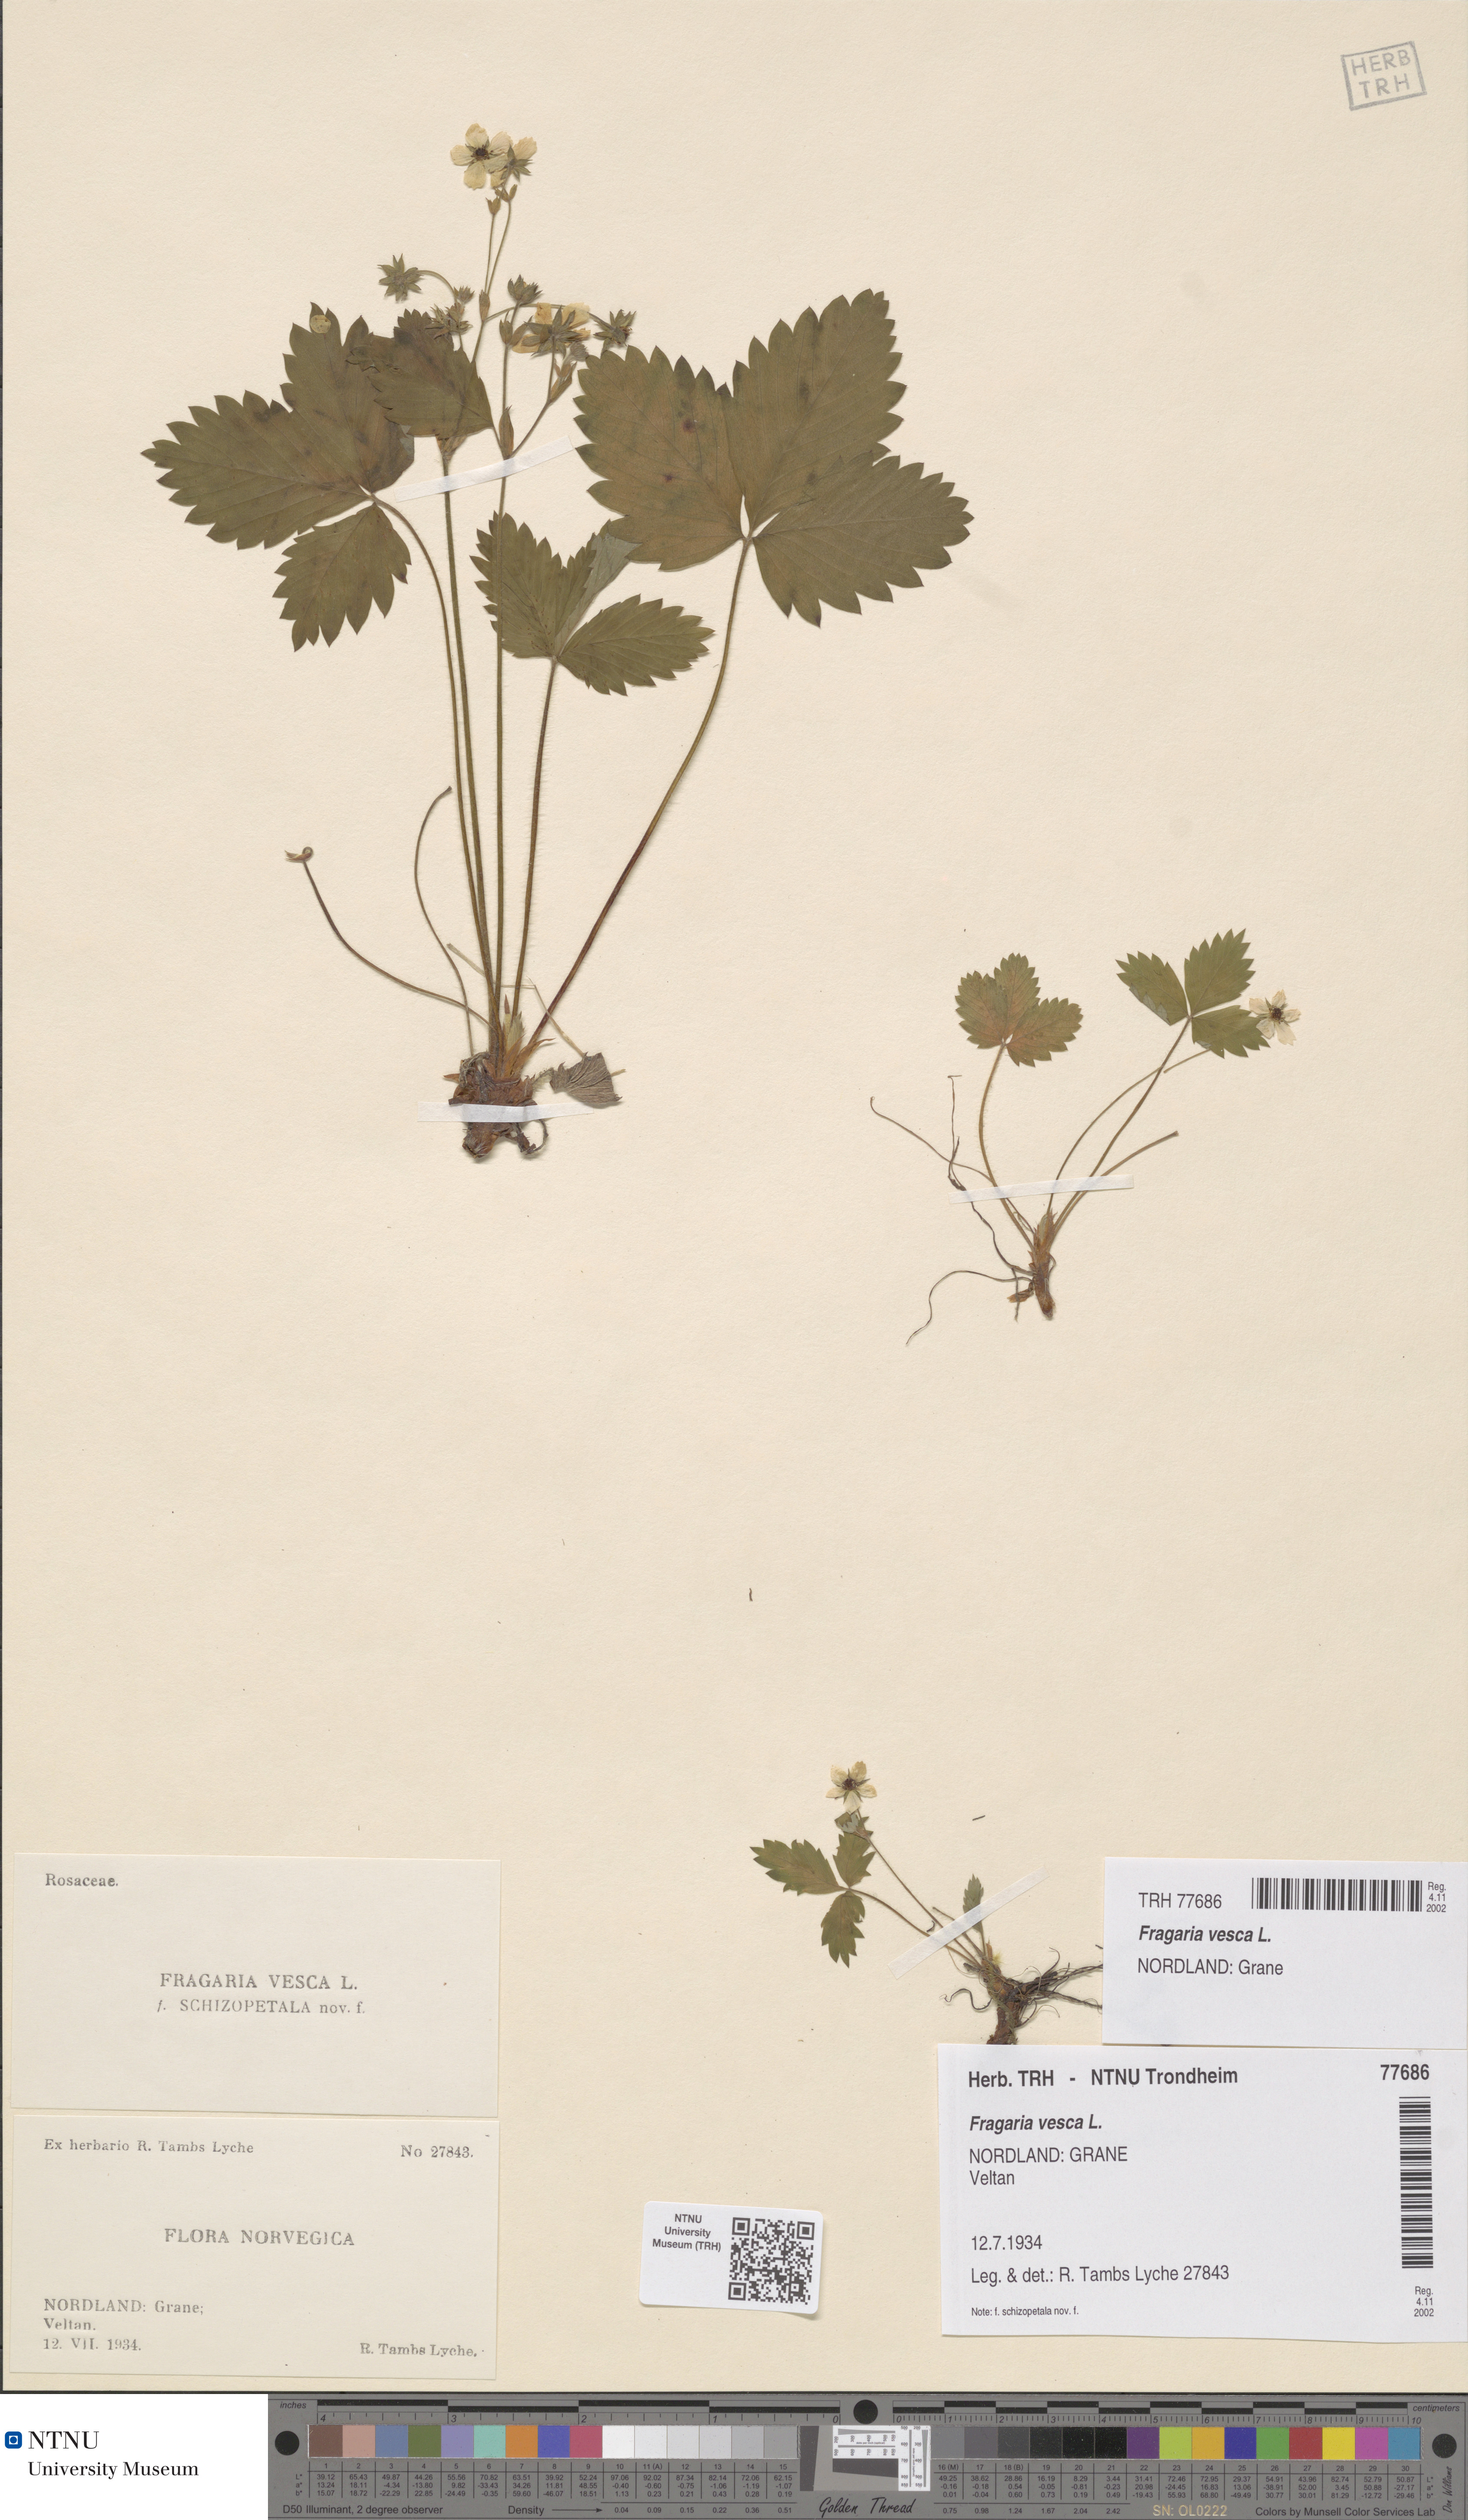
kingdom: Plantae
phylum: Tracheophyta
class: Magnoliopsida
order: Rosales
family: Rosaceae
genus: Fragaria
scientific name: Fragaria vesca
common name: Wild strawberry
